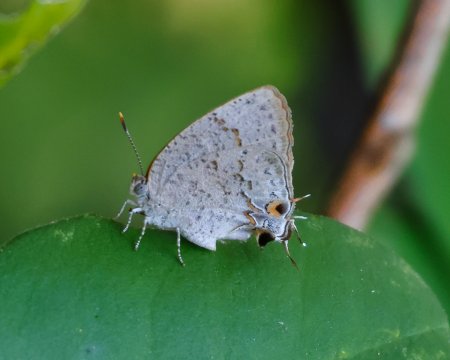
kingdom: Animalia
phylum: Arthropoda
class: Insecta
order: Lepidoptera
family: Lycaenidae
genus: Hypostrymon
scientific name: Hypostrymon critola
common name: Sonoran Hairstreak
